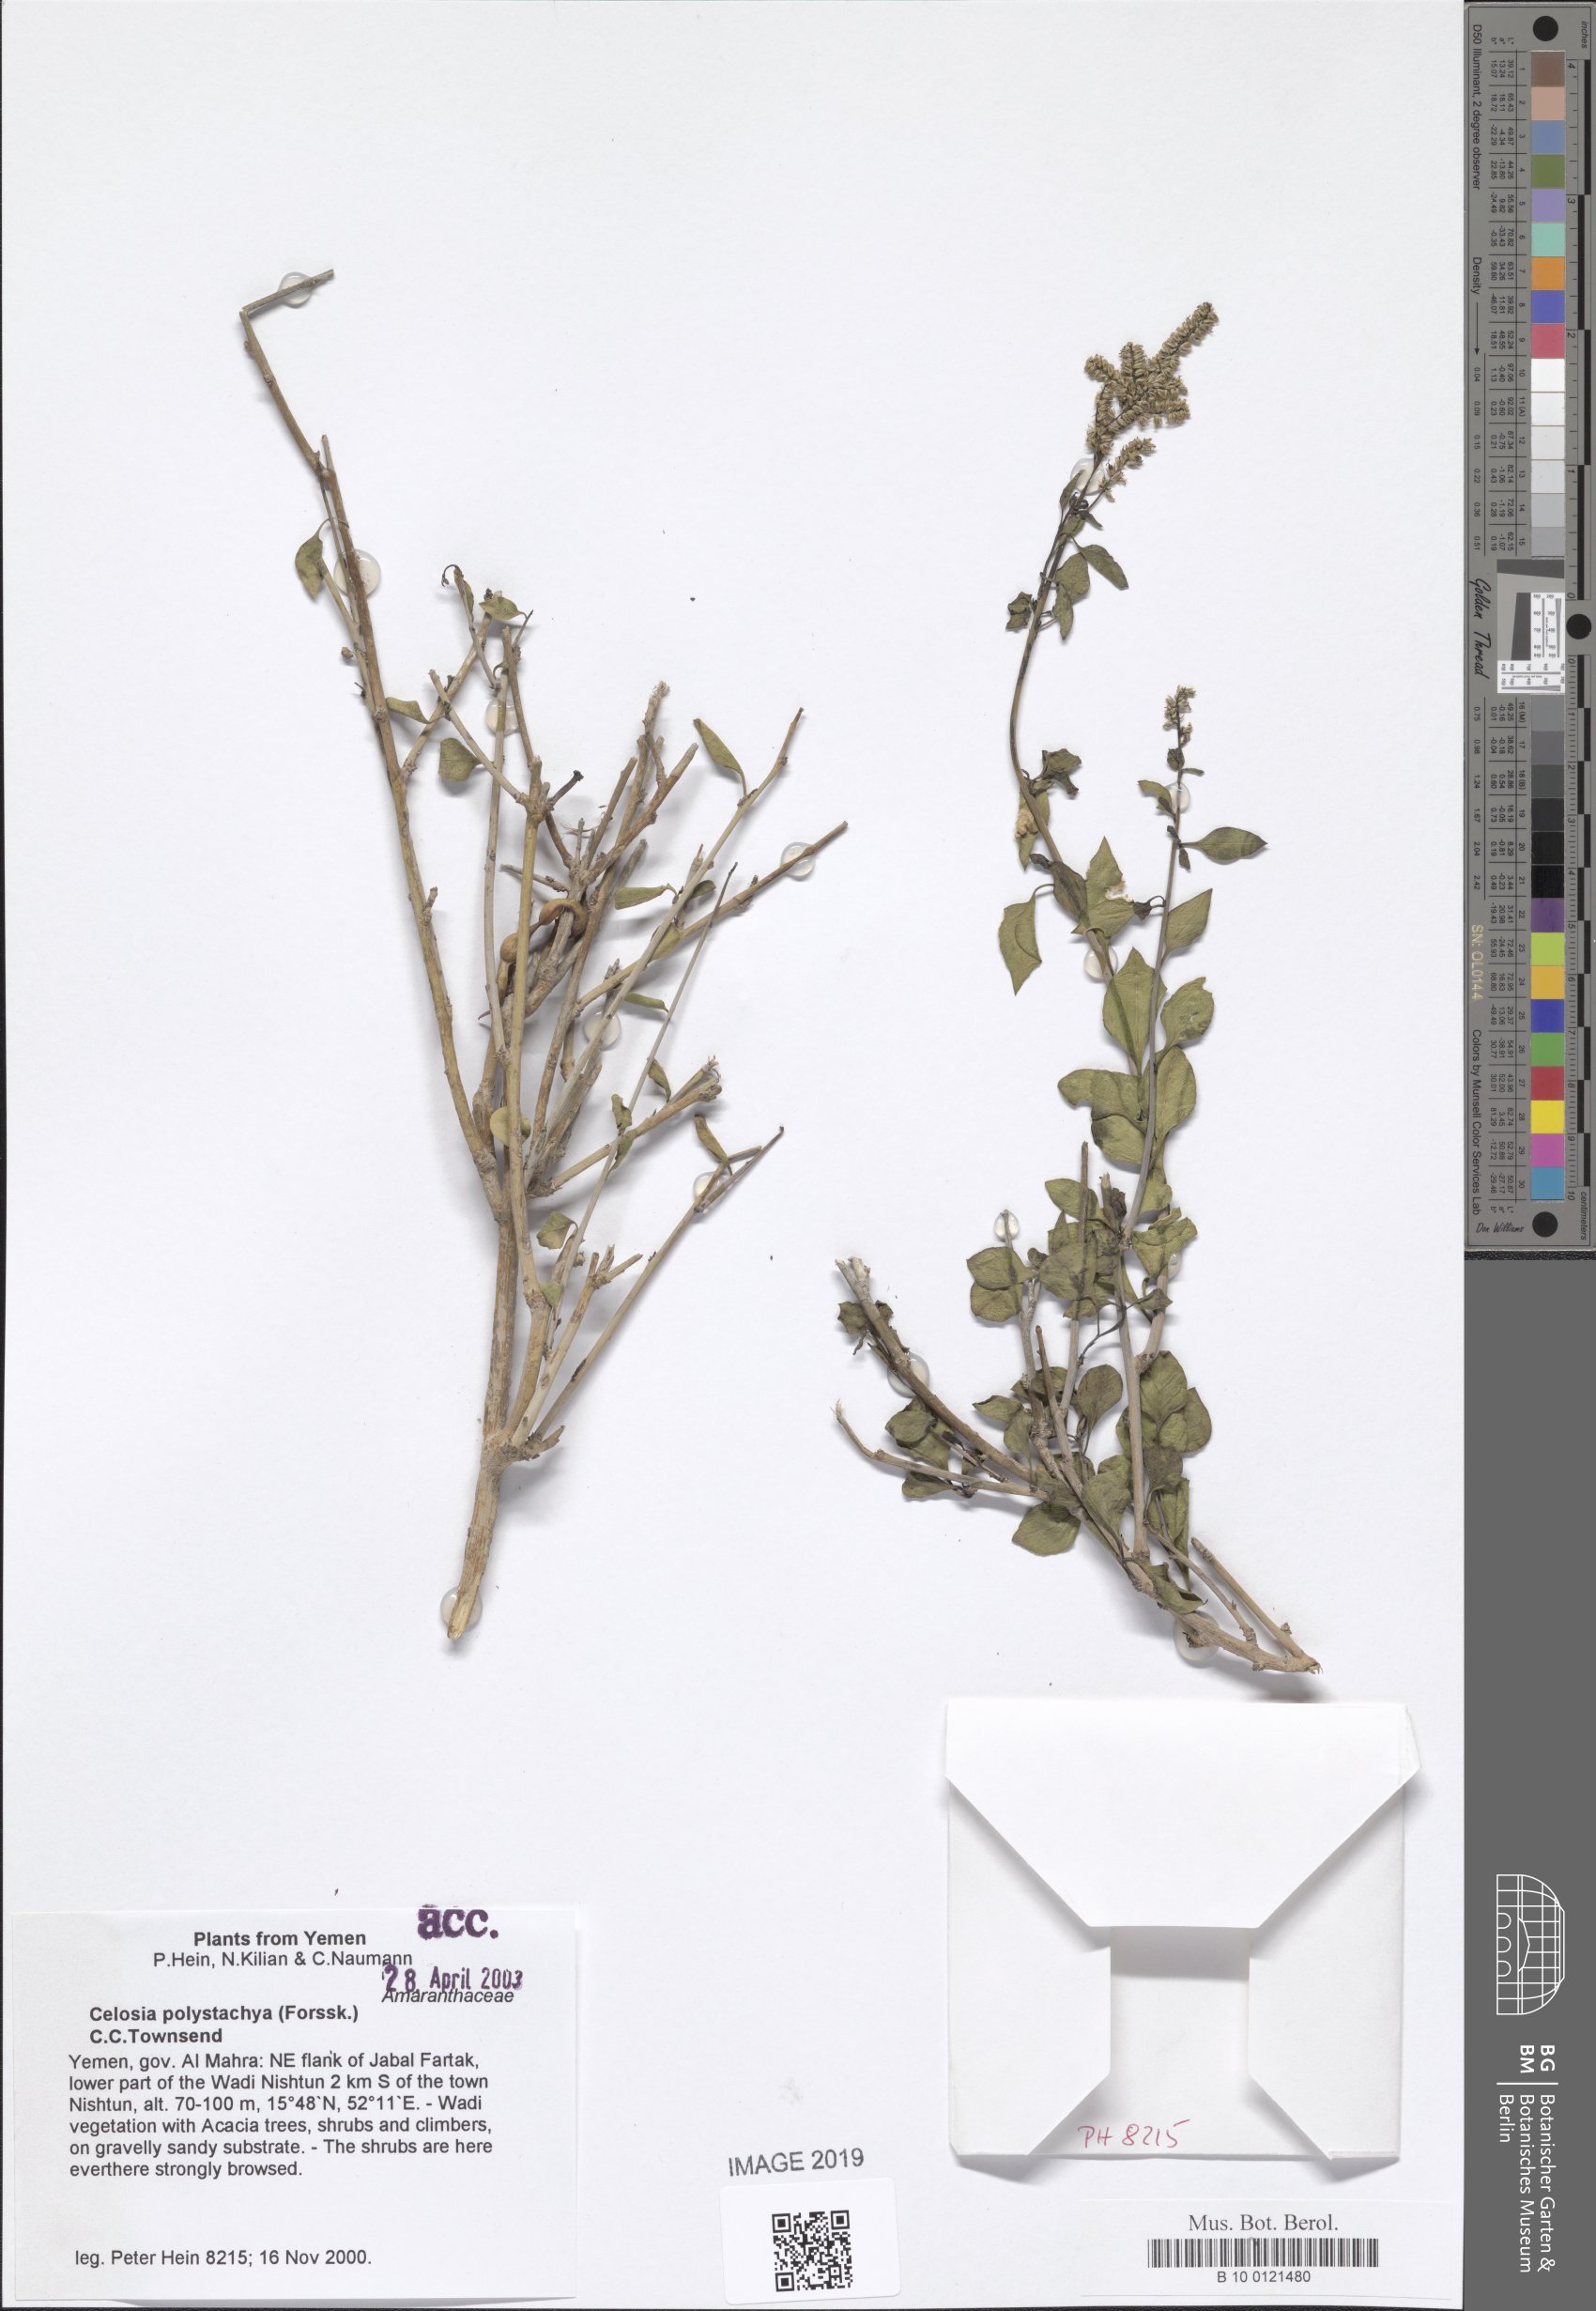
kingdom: Plantae
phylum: Tracheophyta
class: Magnoliopsida
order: Caryophyllales
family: Amaranthaceae
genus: Celosia
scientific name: Celosia polystachya
